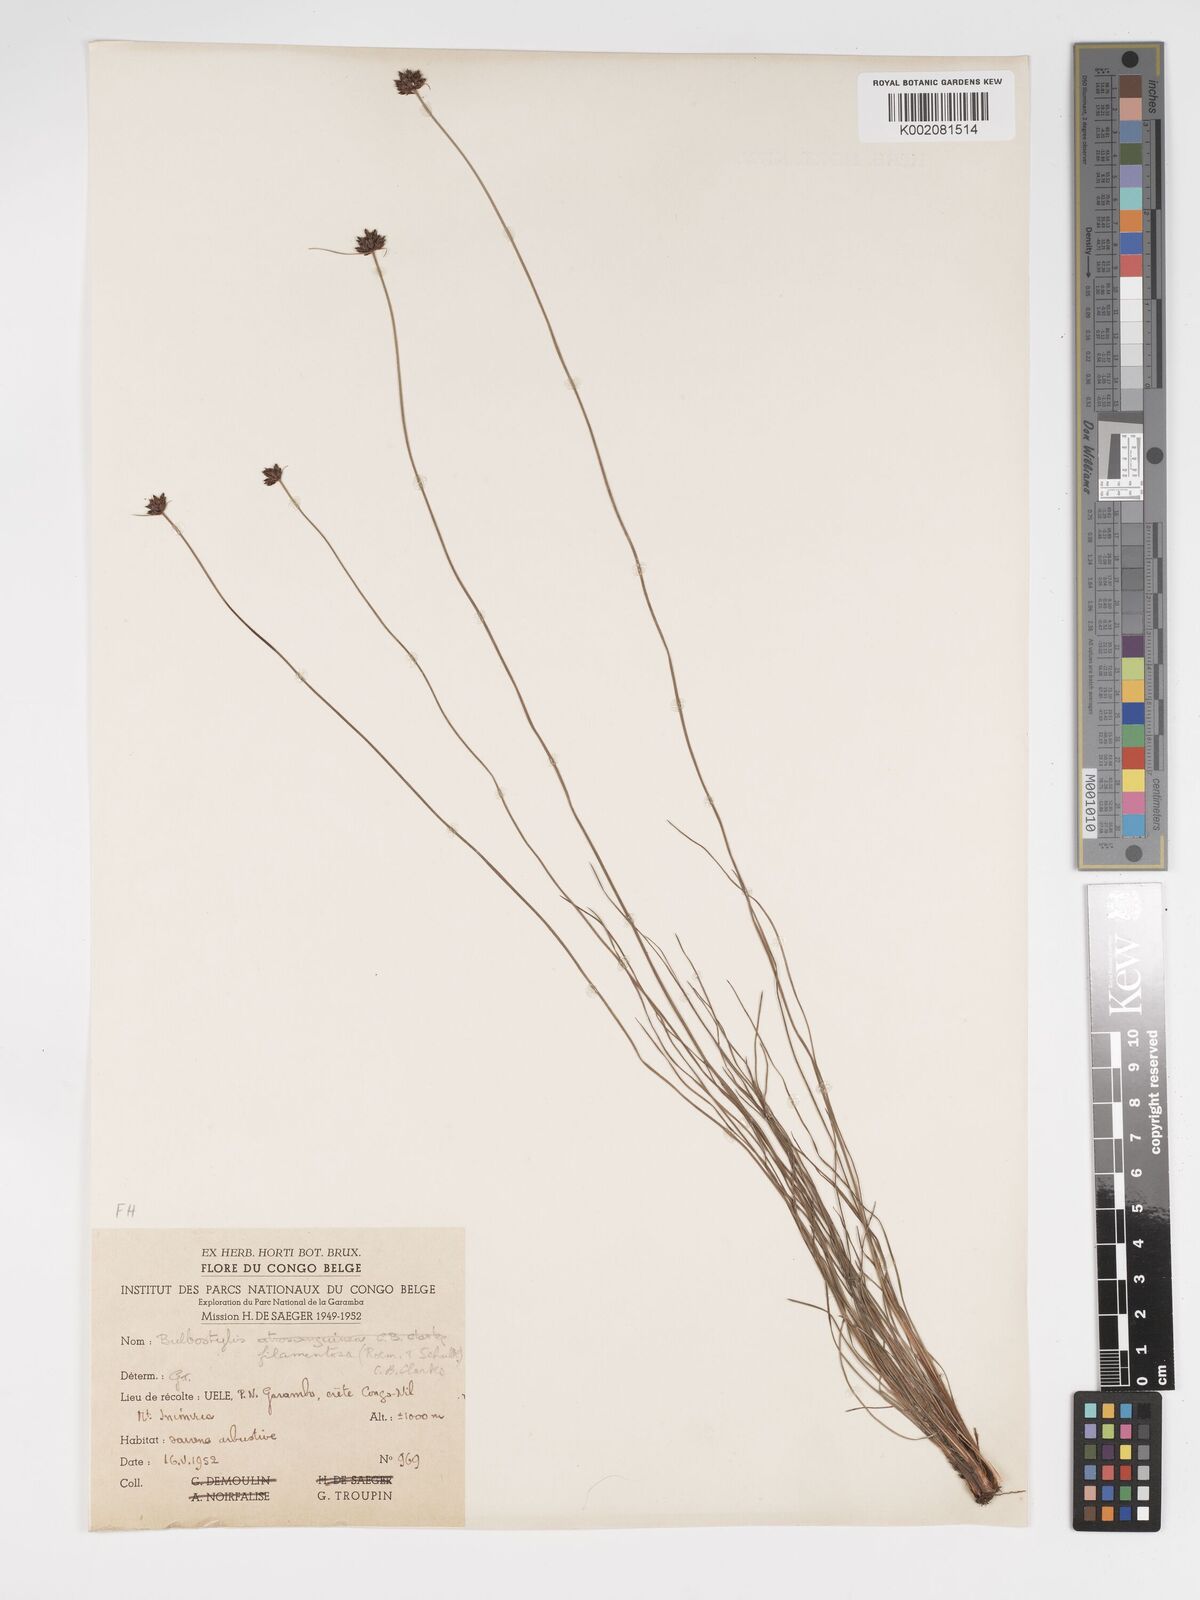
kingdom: Plantae
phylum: Tracheophyta
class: Liliopsida
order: Poales
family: Cyperaceae
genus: Bulbostylis
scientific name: Bulbostylis scabricaulis
